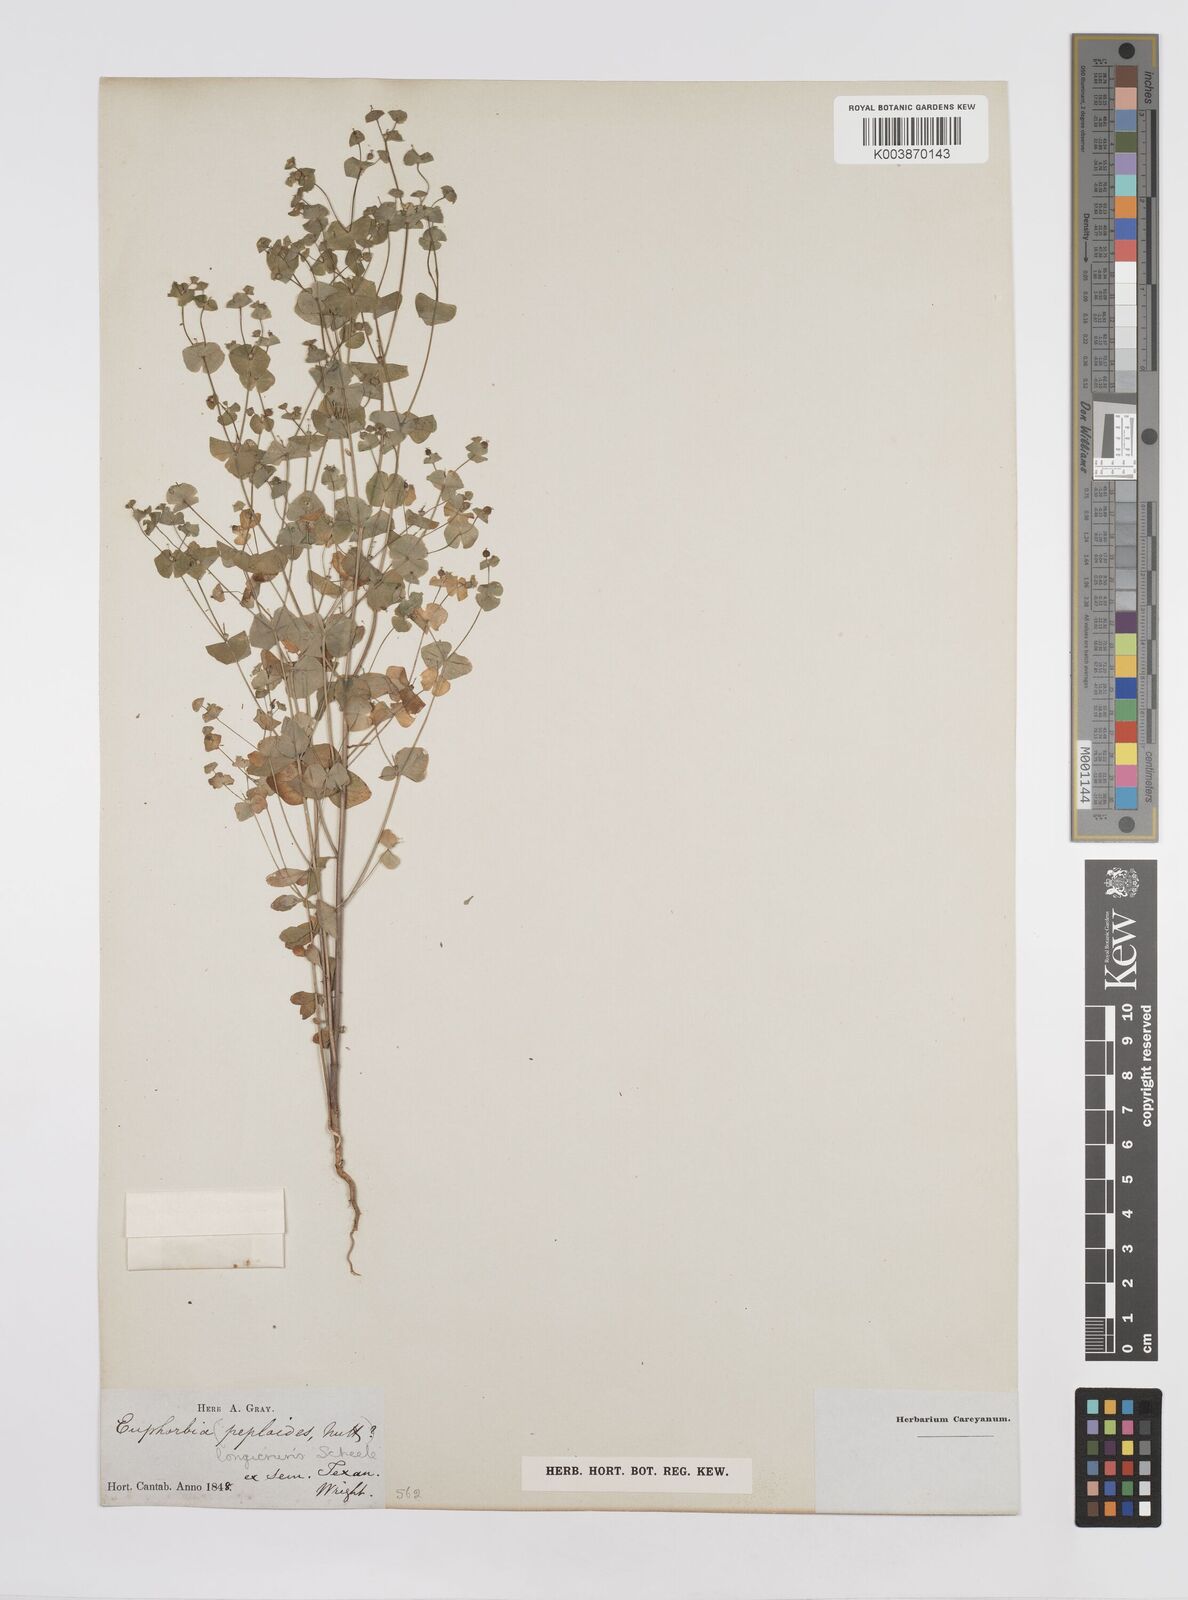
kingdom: Plantae
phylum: Tracheophyta
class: Magnoliopsida
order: Malpighiales
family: Euphorbiaceae
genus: Euphorbia
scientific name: Euphorbia longicruris
